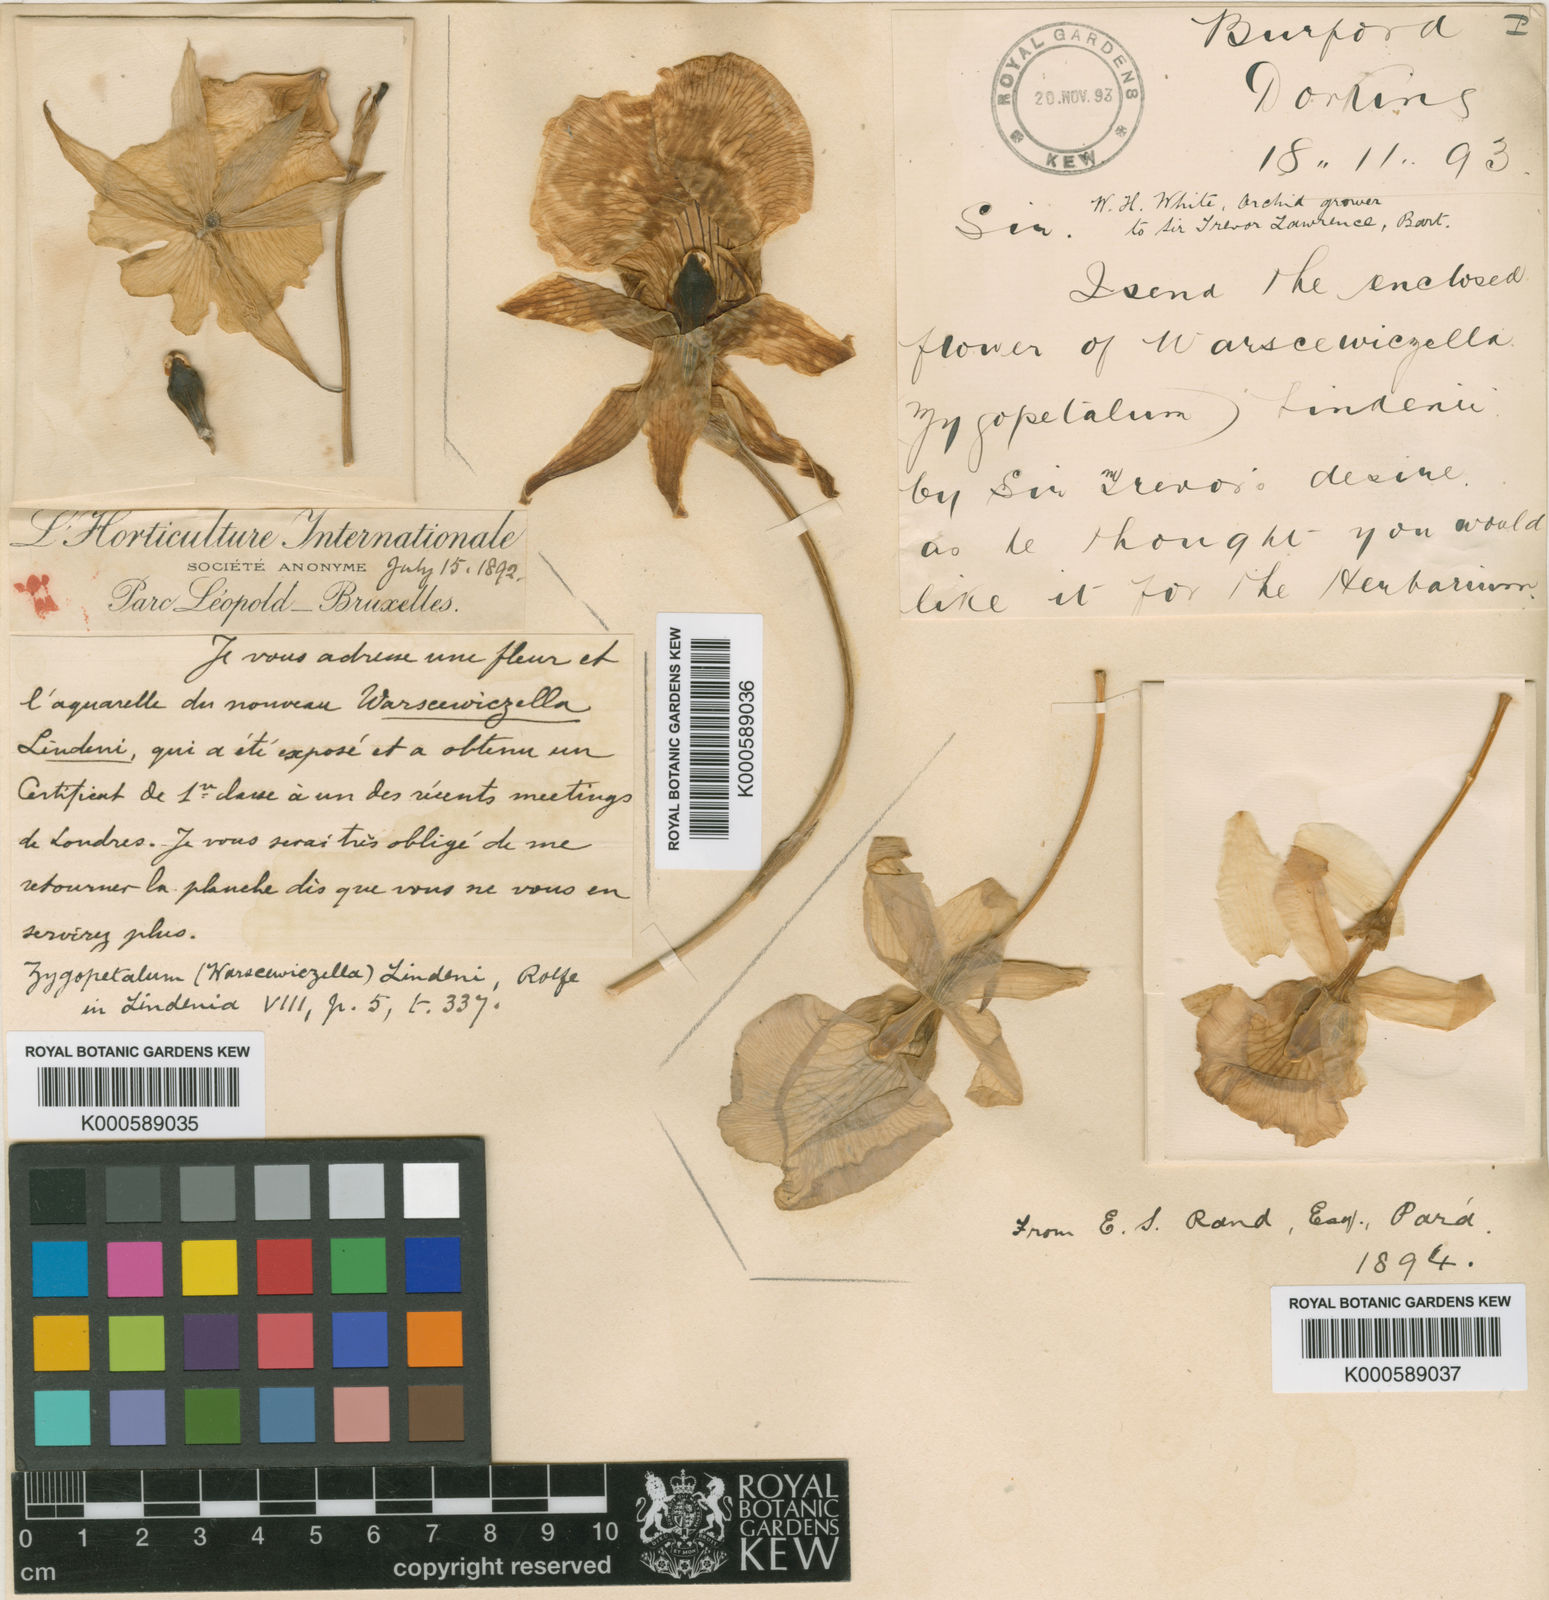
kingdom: Plantae
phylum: Tracheophyta
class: Liliopsida
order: Asparagales
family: Orchidaceae
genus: Warczewiczella
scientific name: Warczewiczella amazonica
